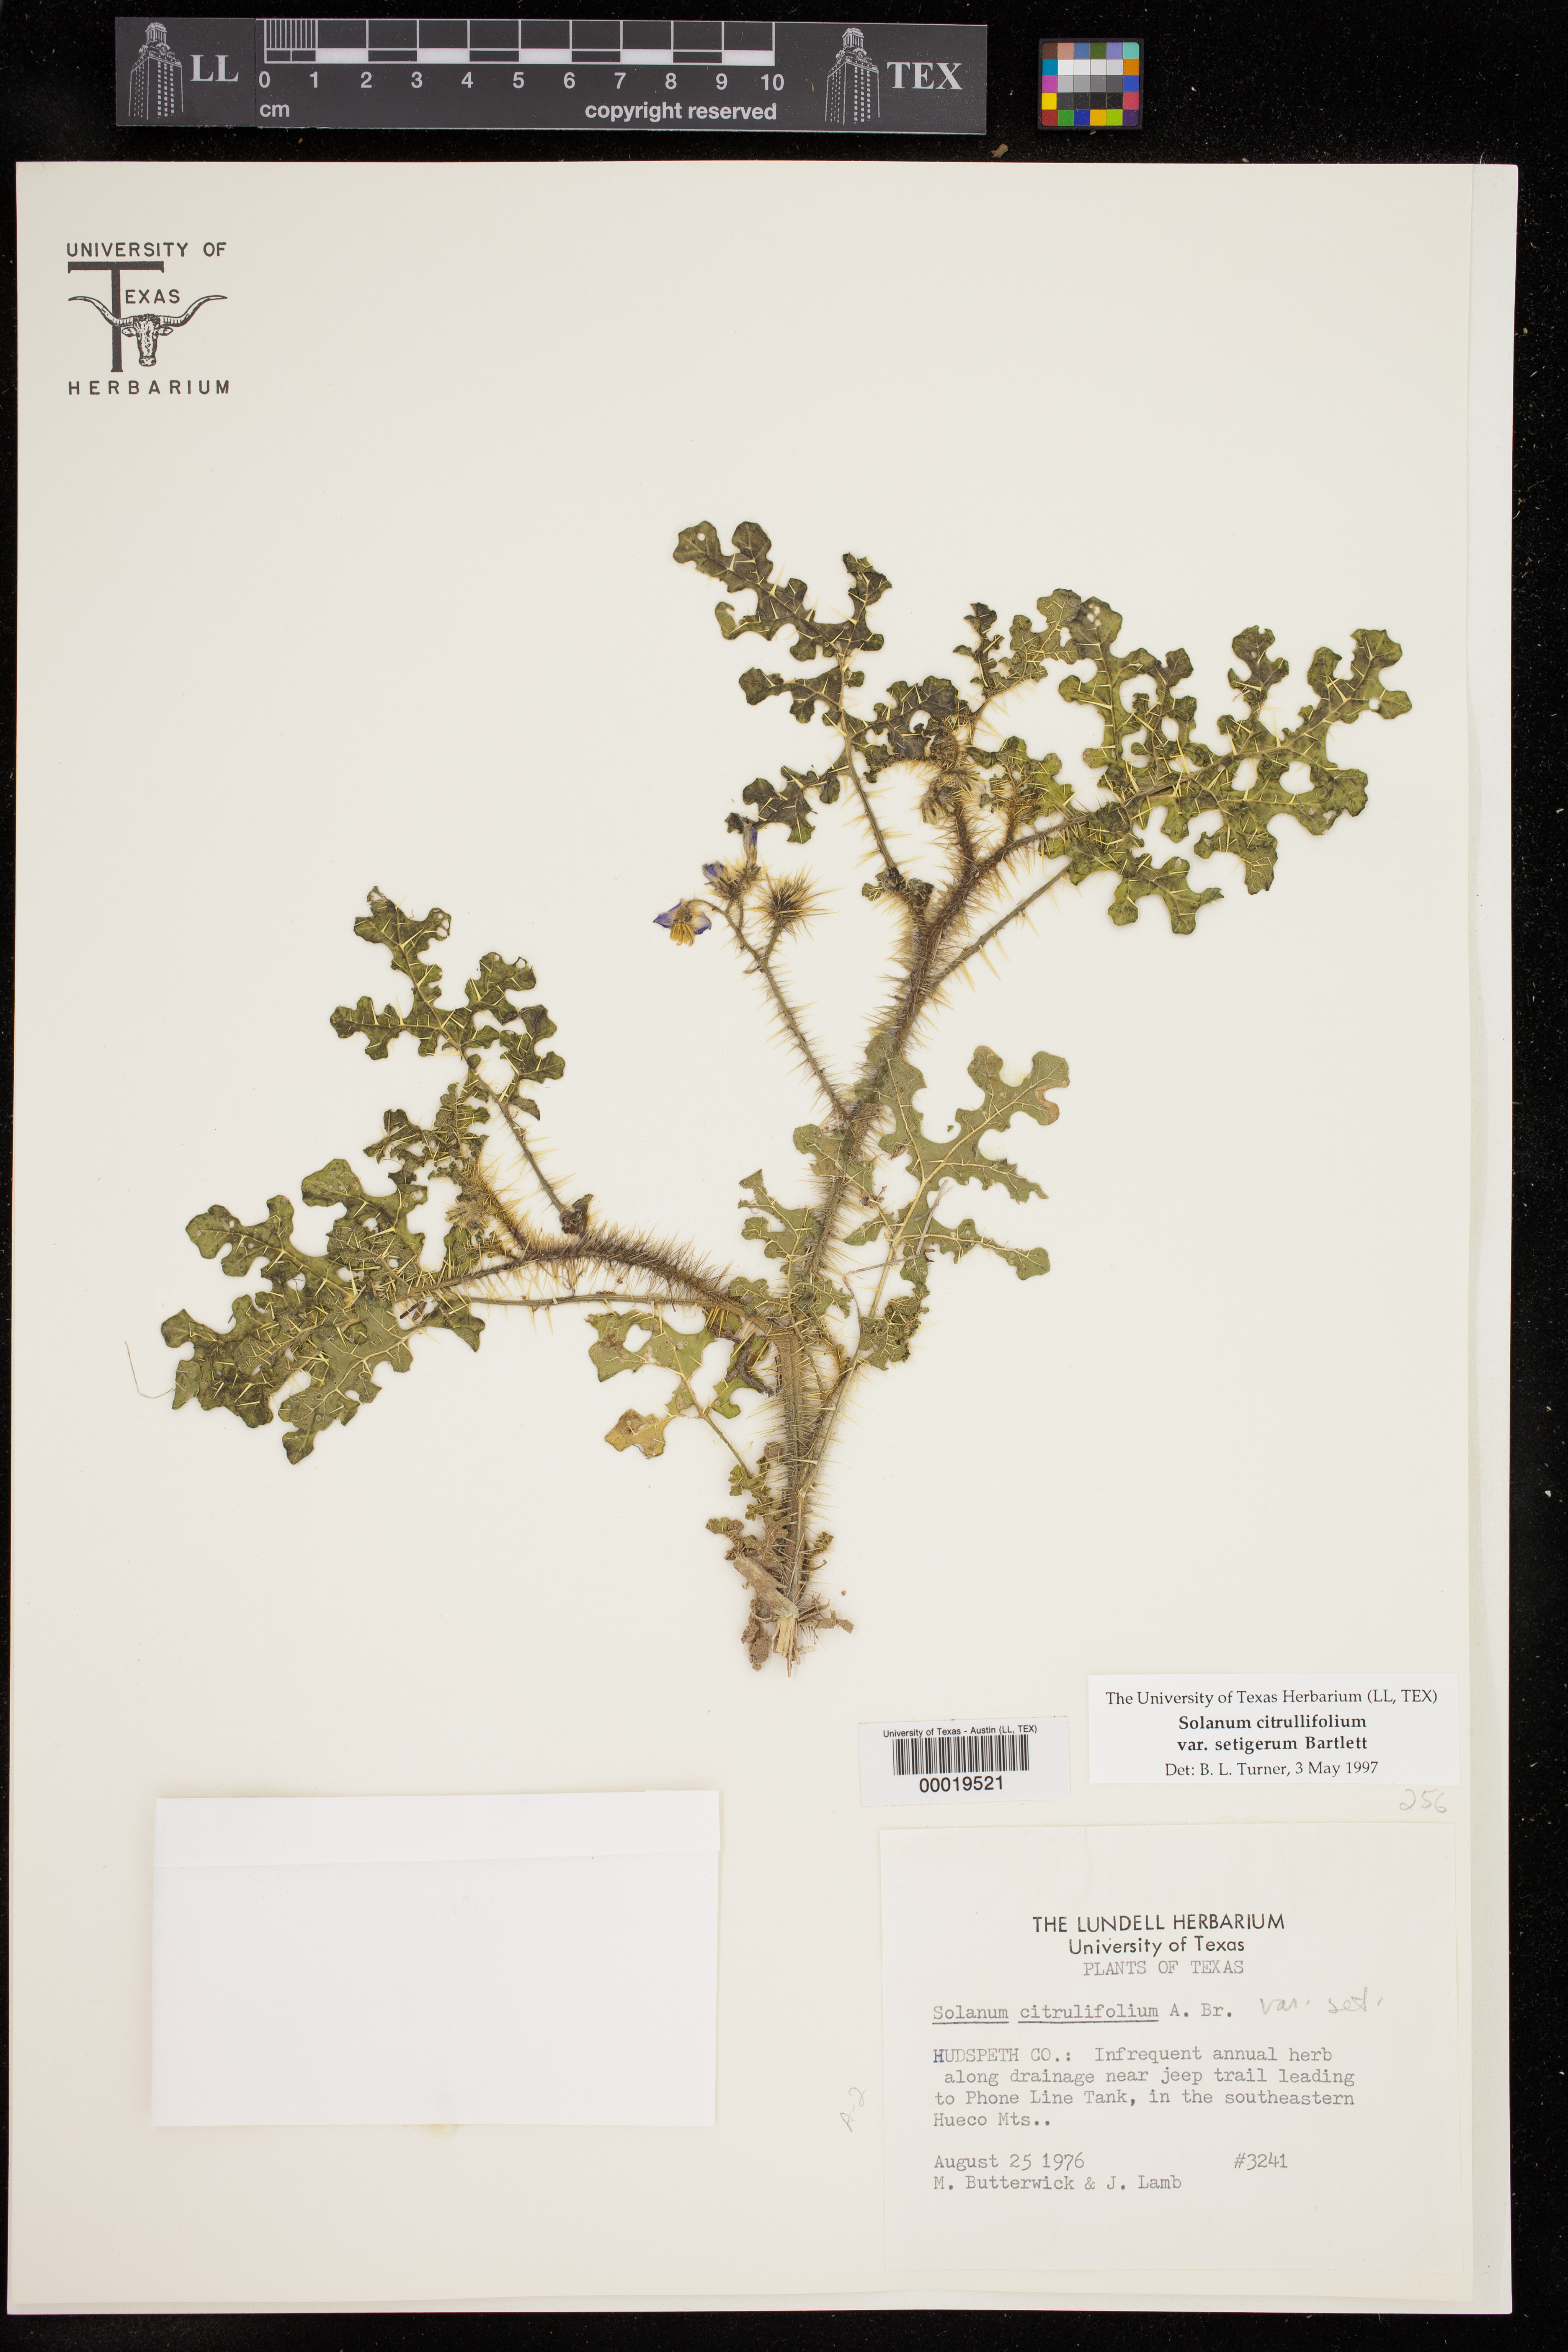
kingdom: Plantae
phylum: Tracheophyta
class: Magnoliopsida
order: Solanales
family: Solanaceae
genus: Solanum
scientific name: Solanum citrullifolium
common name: Melon-leaf nightshade
